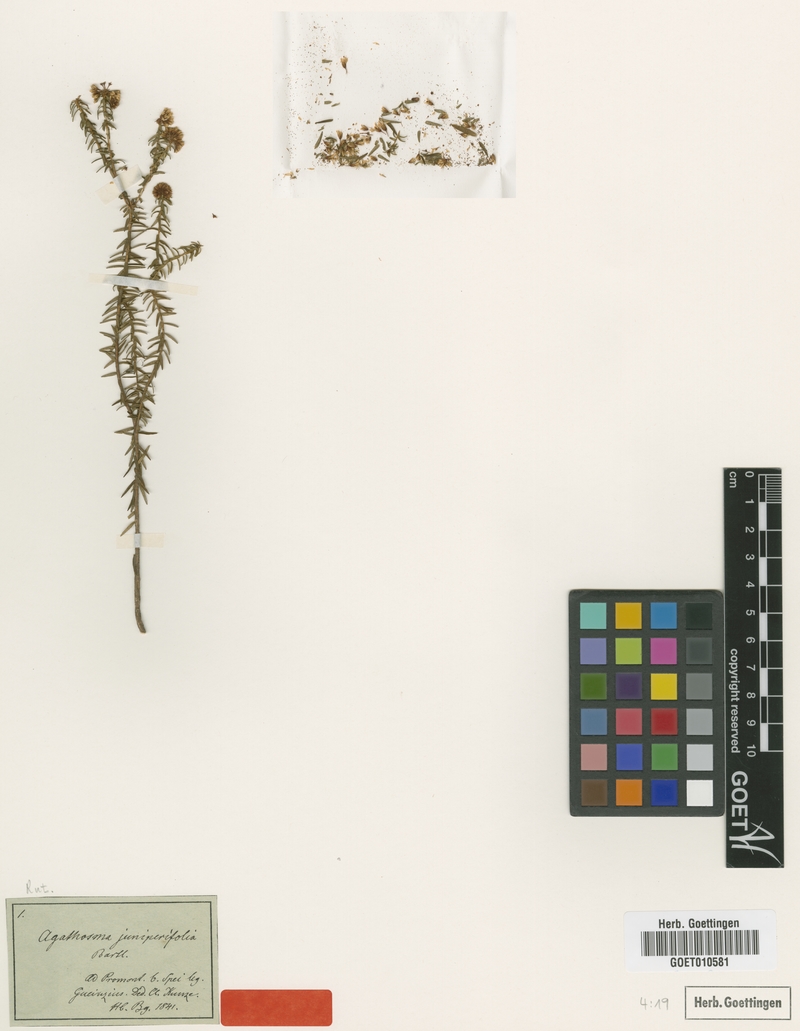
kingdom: Plantae
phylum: Tracheophyta
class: Magnoliopsida
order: Sapindales
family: Rutaceae
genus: Agathosma
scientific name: Agathosma juniperifolia
